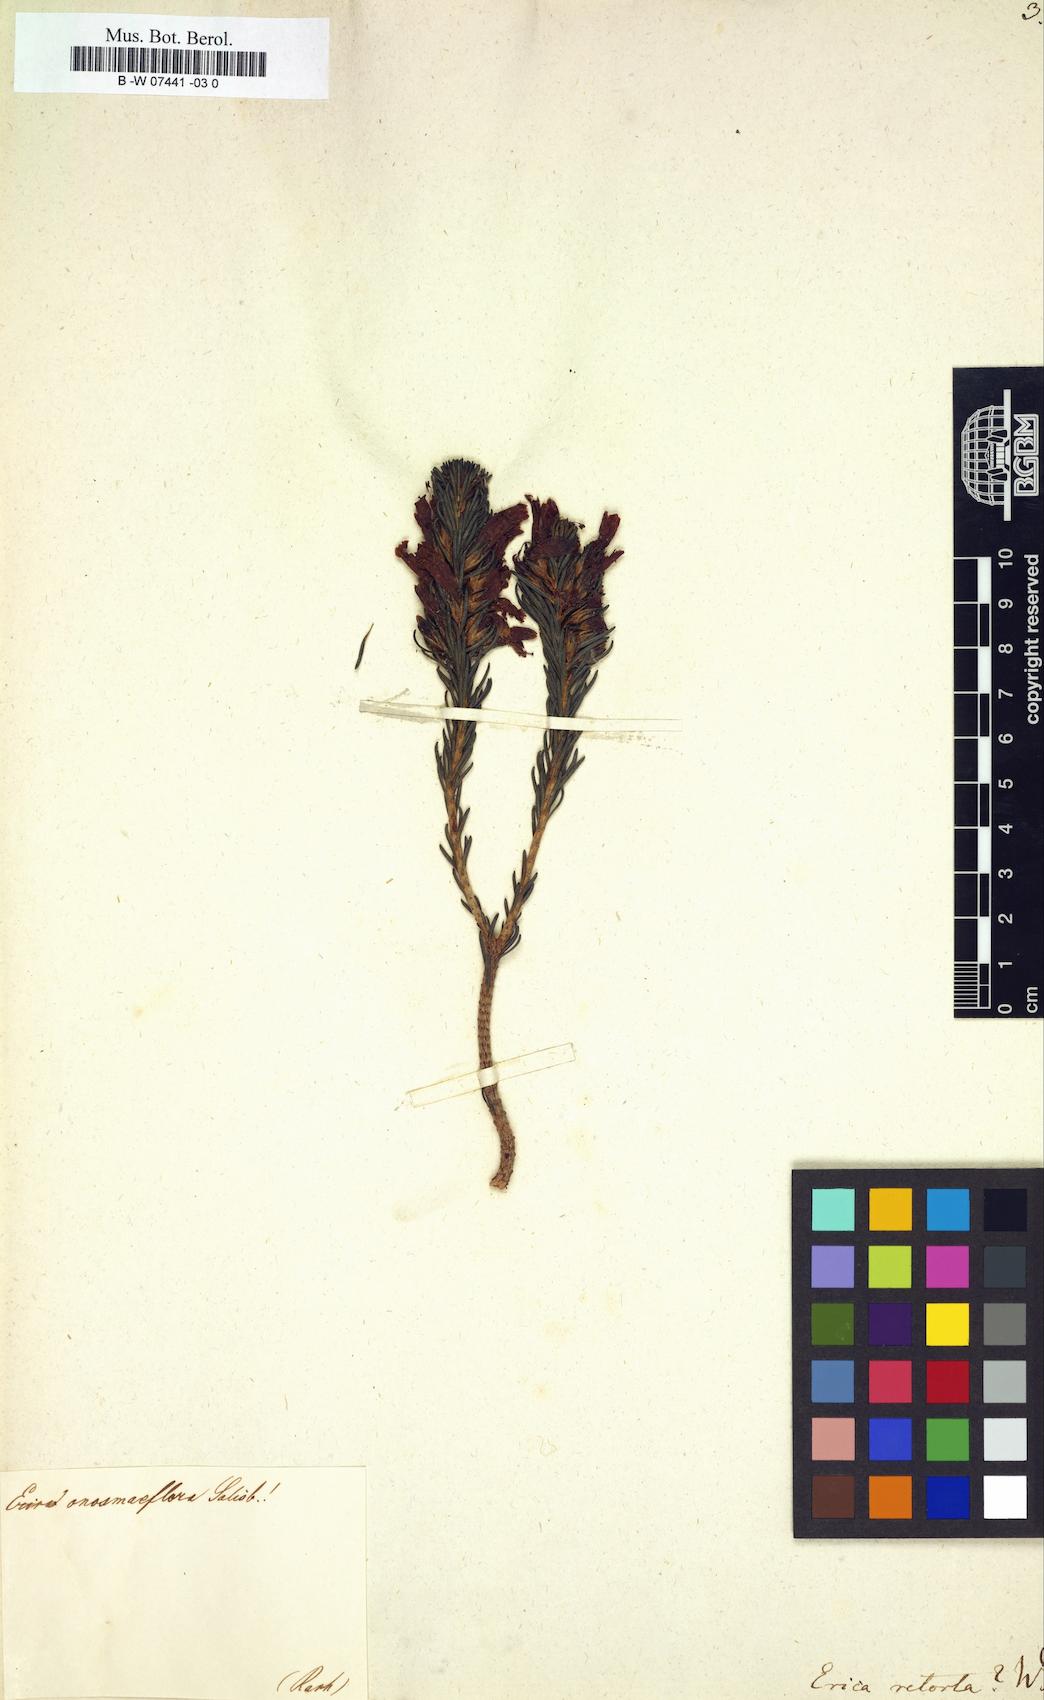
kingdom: Plantae
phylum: Tracheophyta
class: Magnoliopsida
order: Ericales
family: Ericaceae
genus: Erica
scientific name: Erica retorta
